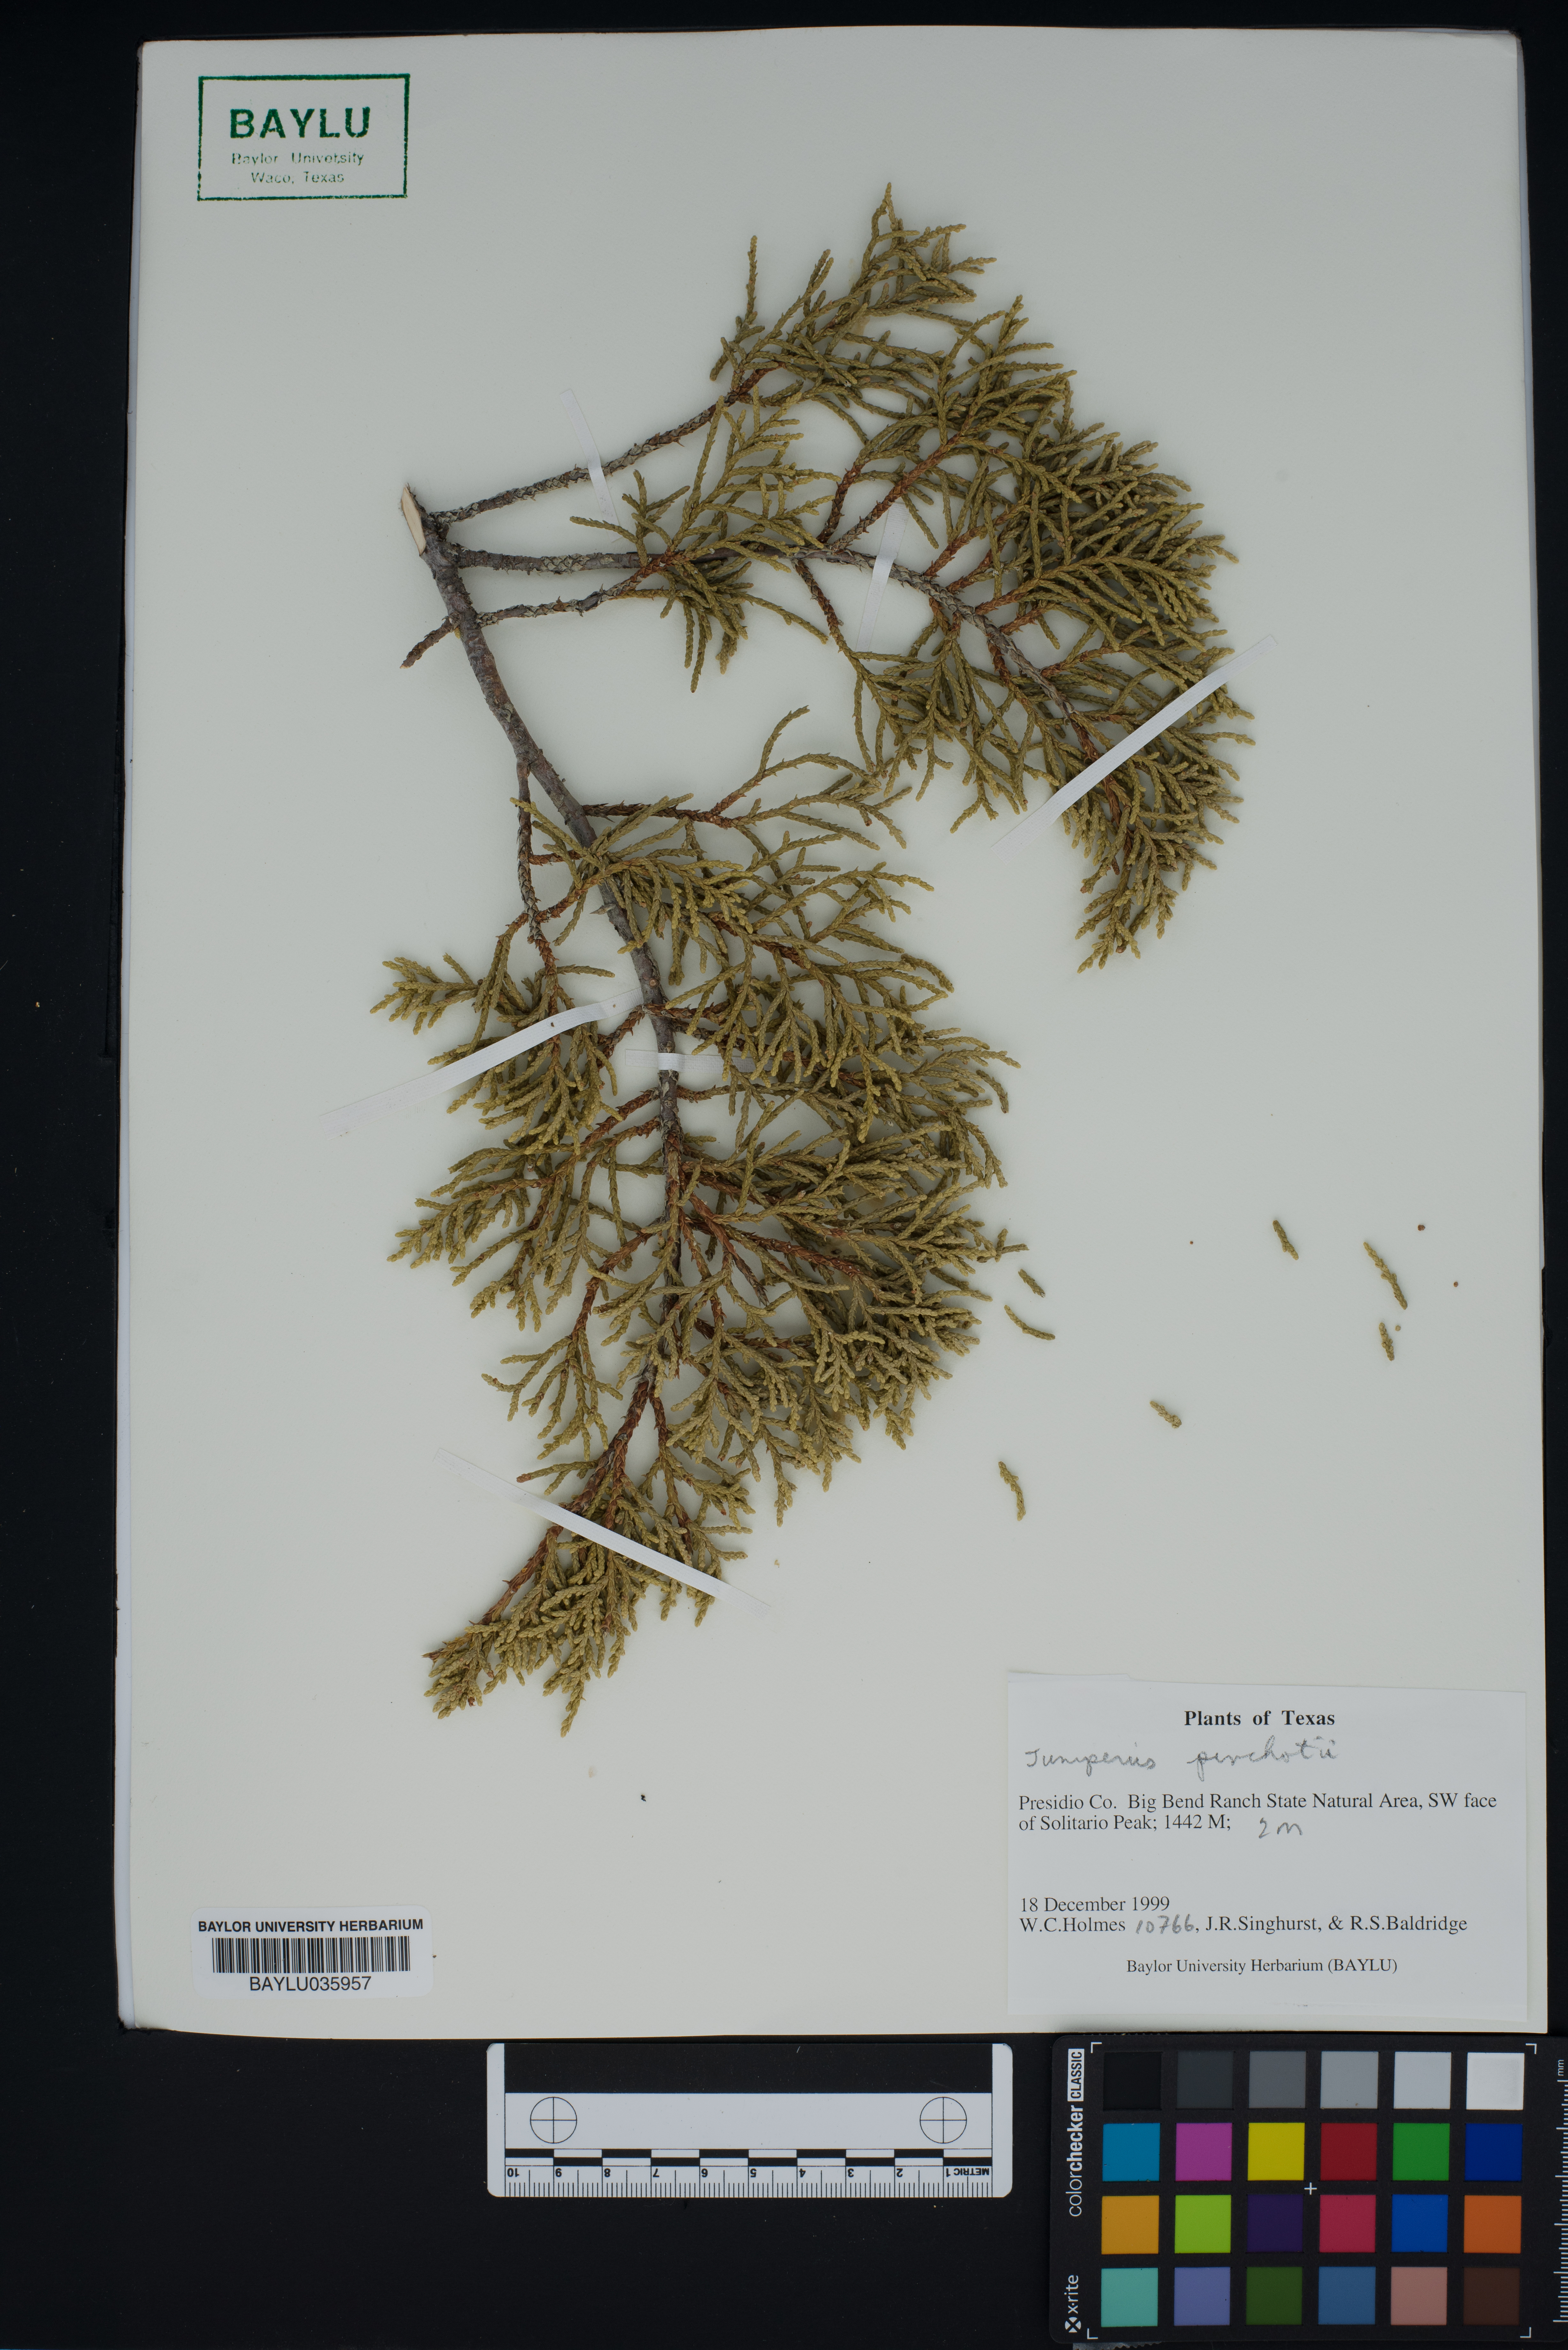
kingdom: Plantae
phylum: Tracheophyta
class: Pinopsida
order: Pinales
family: Cupressaceae
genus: Juniperus
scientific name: Juniperus pinchotii
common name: Pinchot juniper
